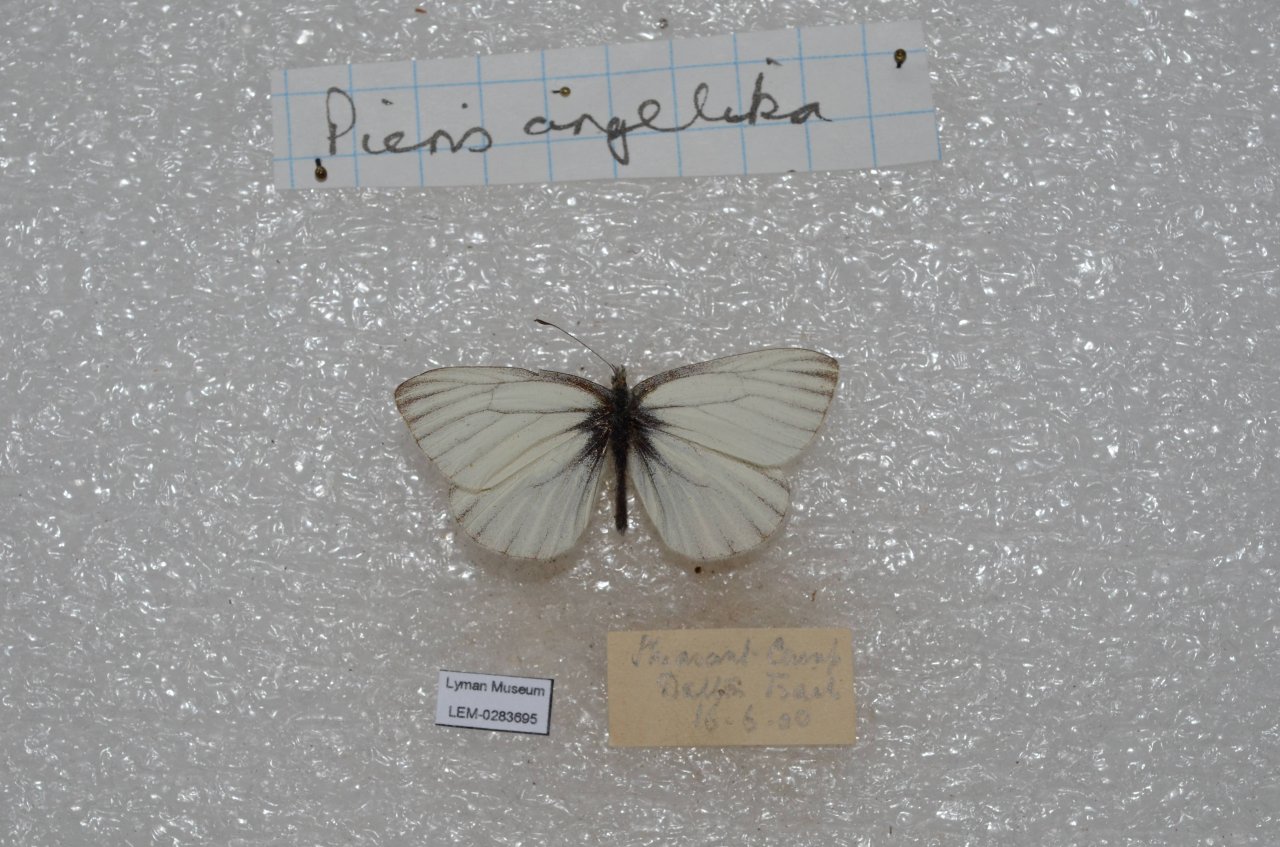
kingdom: Animalia
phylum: Arthropoda
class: Insecta
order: Lepidoptera
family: Pieridae
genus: Pieris
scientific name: Pieris angelika
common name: Arctic White
